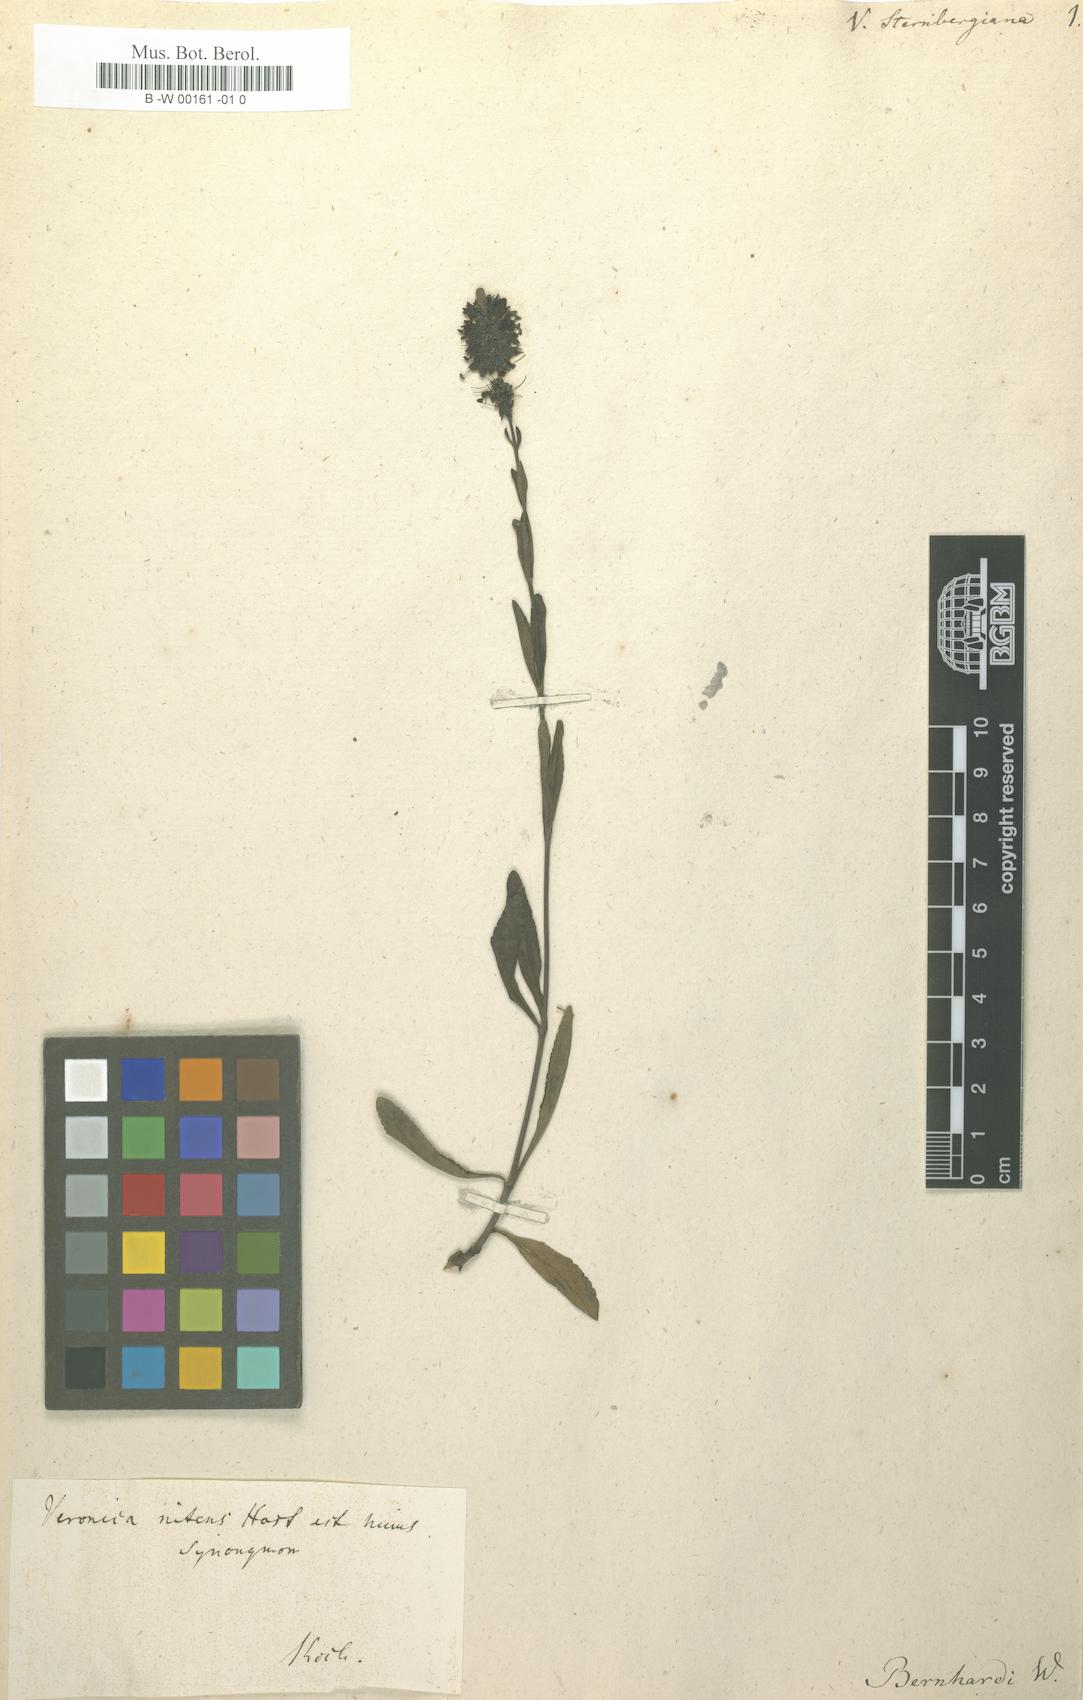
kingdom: Plantae
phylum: Tracheophyta
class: Magnoliopsida
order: Lamiales
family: Plantaginaceae
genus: Veronica
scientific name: Veronica barrelieri
